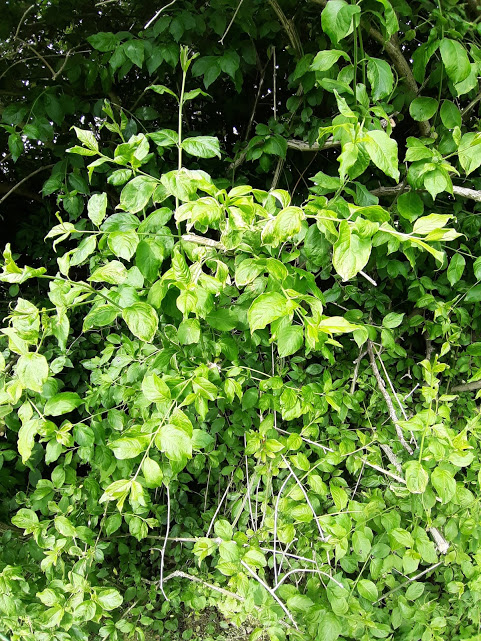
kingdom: Fungi
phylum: Basidiomycota
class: Pucciniomycetes
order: Pucciniales
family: Melampsoraceae
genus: Melampsora
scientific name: Melampsora epitea
